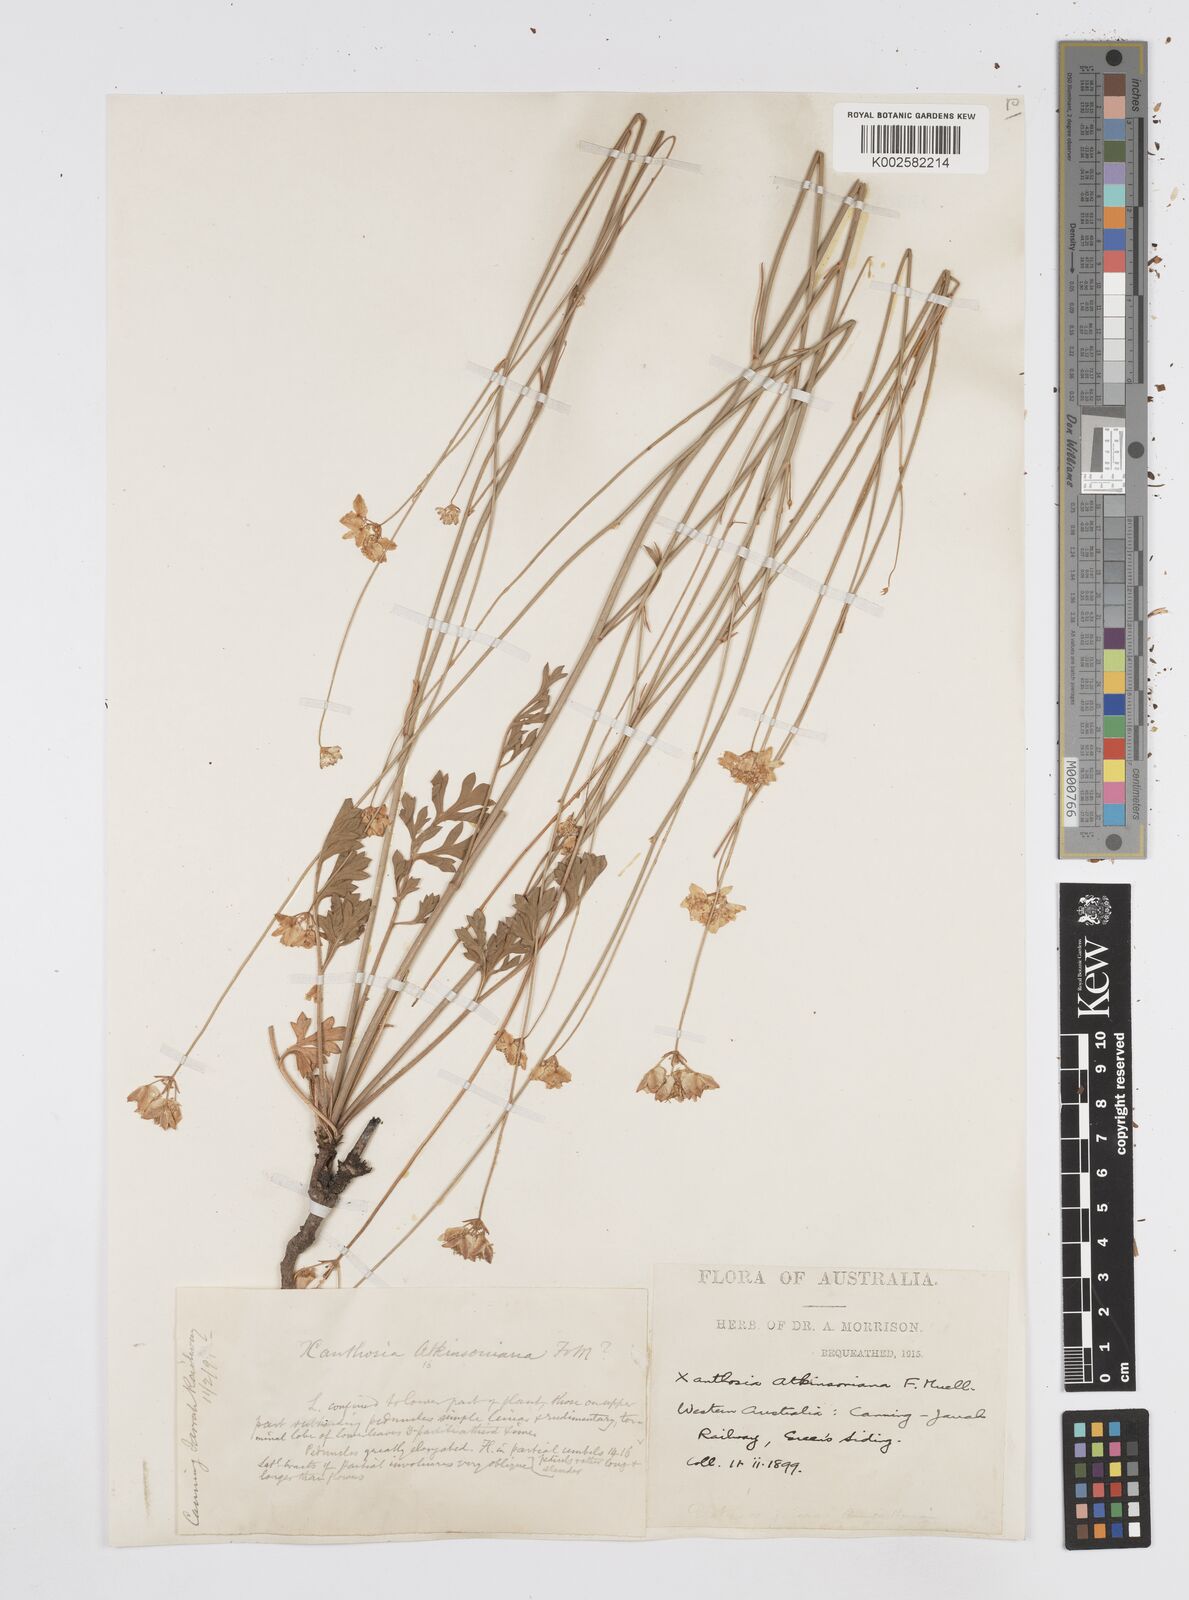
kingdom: Plantae
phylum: Tracheophyta
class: Magnoliopsida
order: Apiales
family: Apiaceae
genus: Xanthosia
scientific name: Xanthosia atkinsoniana
